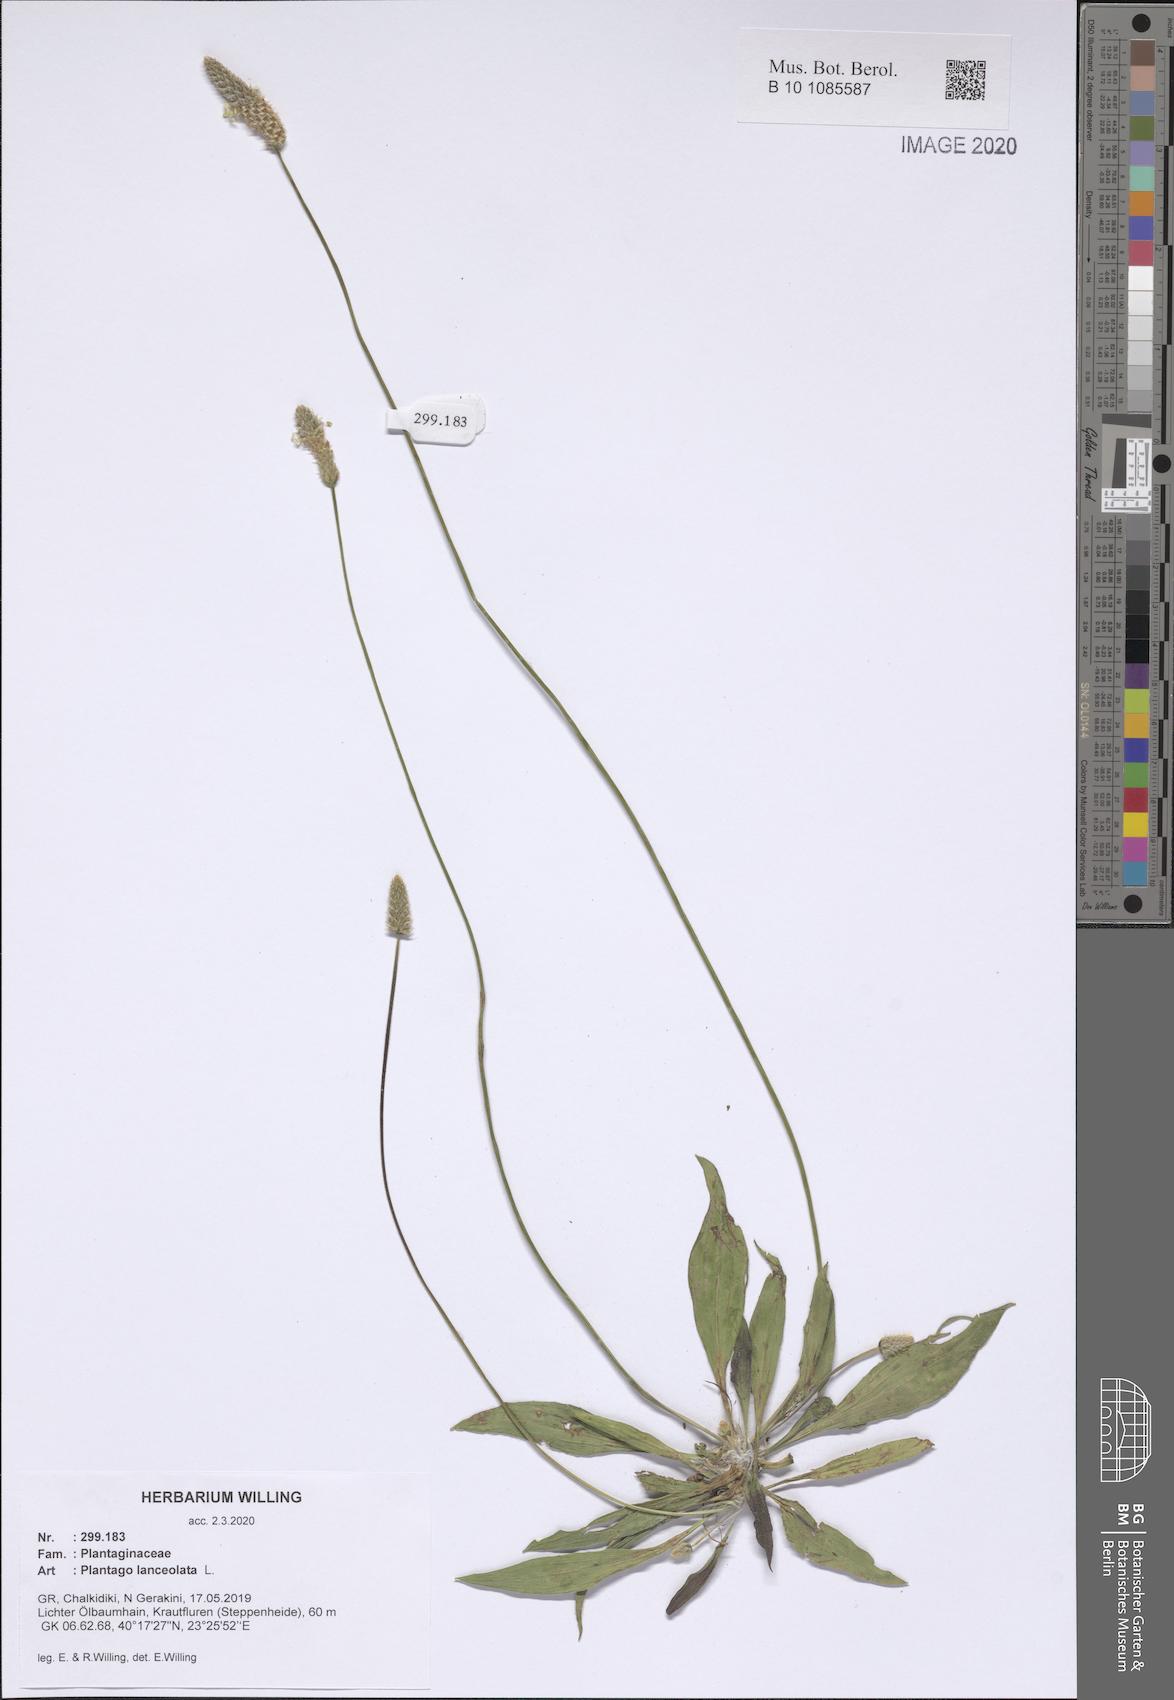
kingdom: Plantae
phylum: Tracheophyta
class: Magnoliopsida
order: Lamiales
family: Plantaginaceae
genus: Plantago
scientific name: Plantago lanceolata
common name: Ribwort plantain
